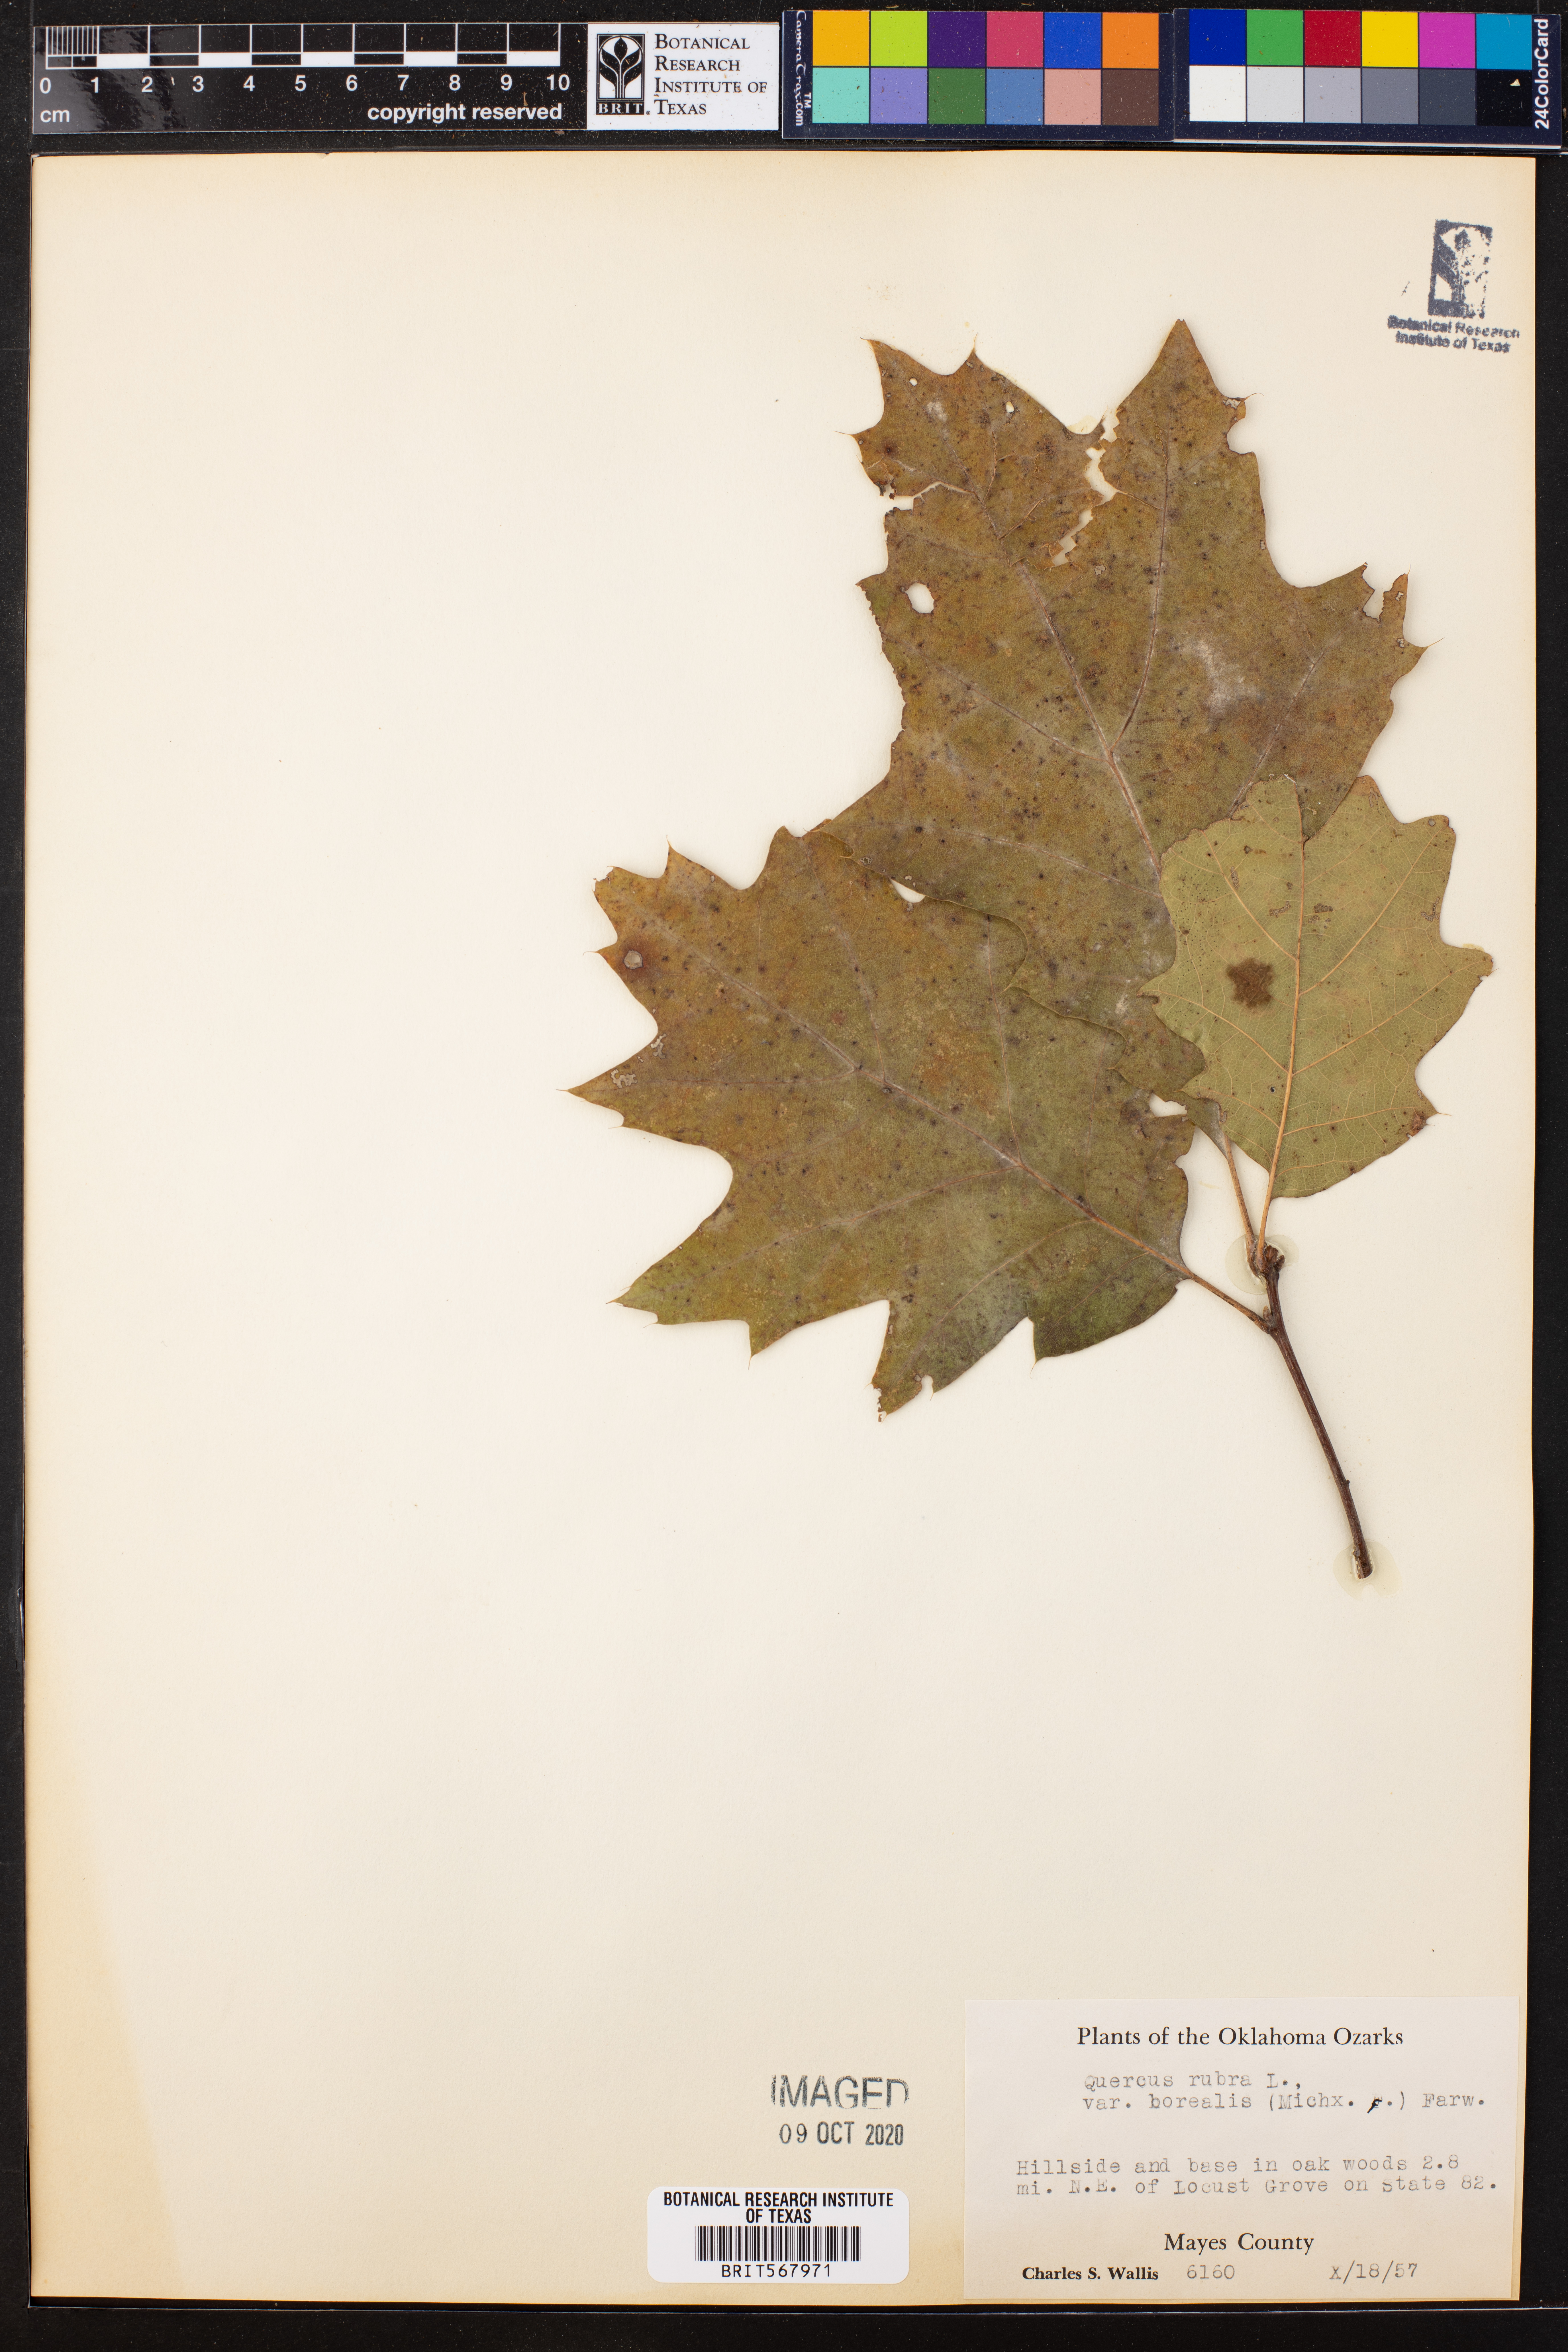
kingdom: Plantae
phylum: Tracheophyta
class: Magnoliopsida
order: Fagales
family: Fagaceae
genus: Quercus
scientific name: Quercus rubra
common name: Red oak
